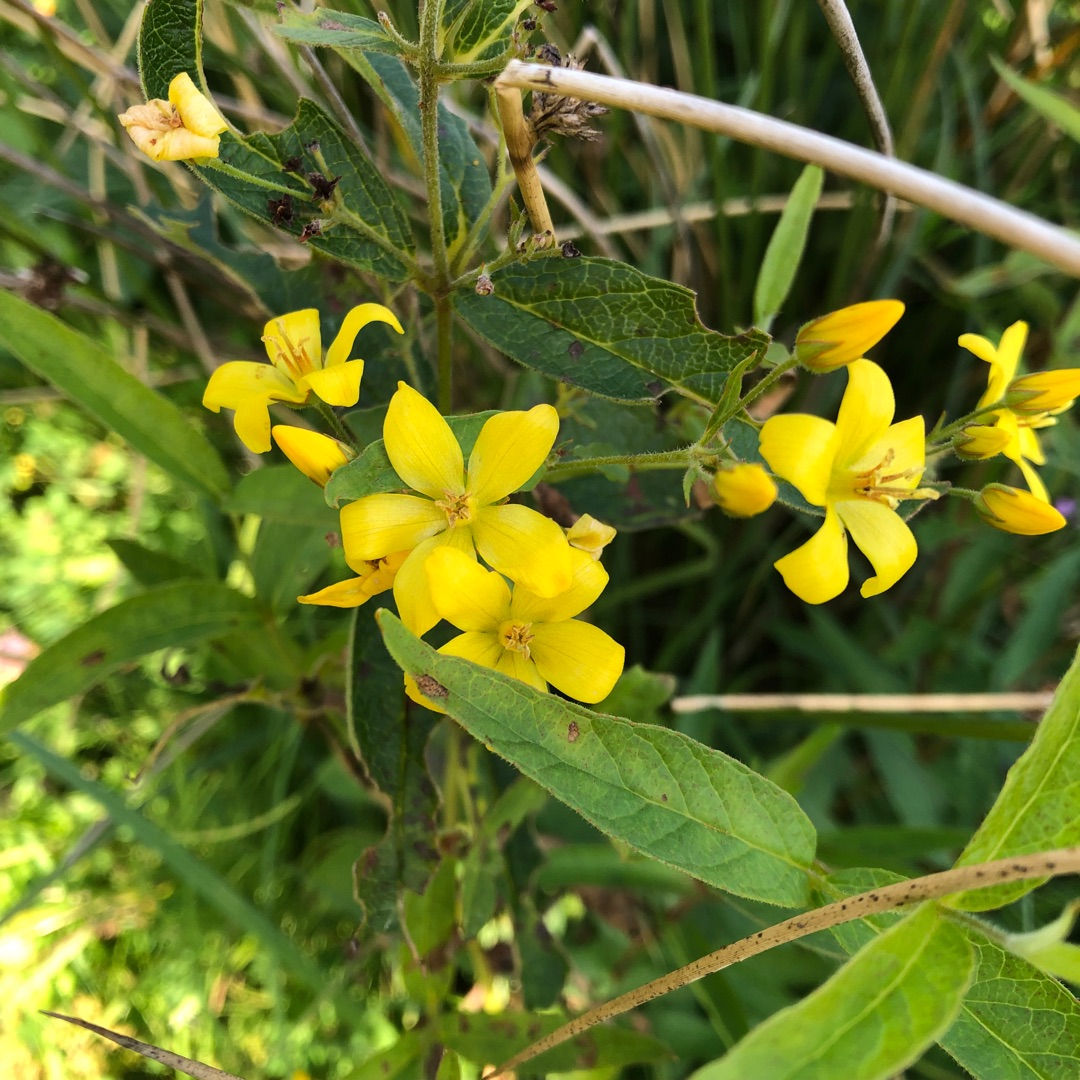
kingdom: Plantae
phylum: Tracheophyta
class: Magnoliopsida
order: Ericales
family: Primulaceae
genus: Lysimachia
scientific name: Lysimachia vulgaris
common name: Almindelig fredløs
